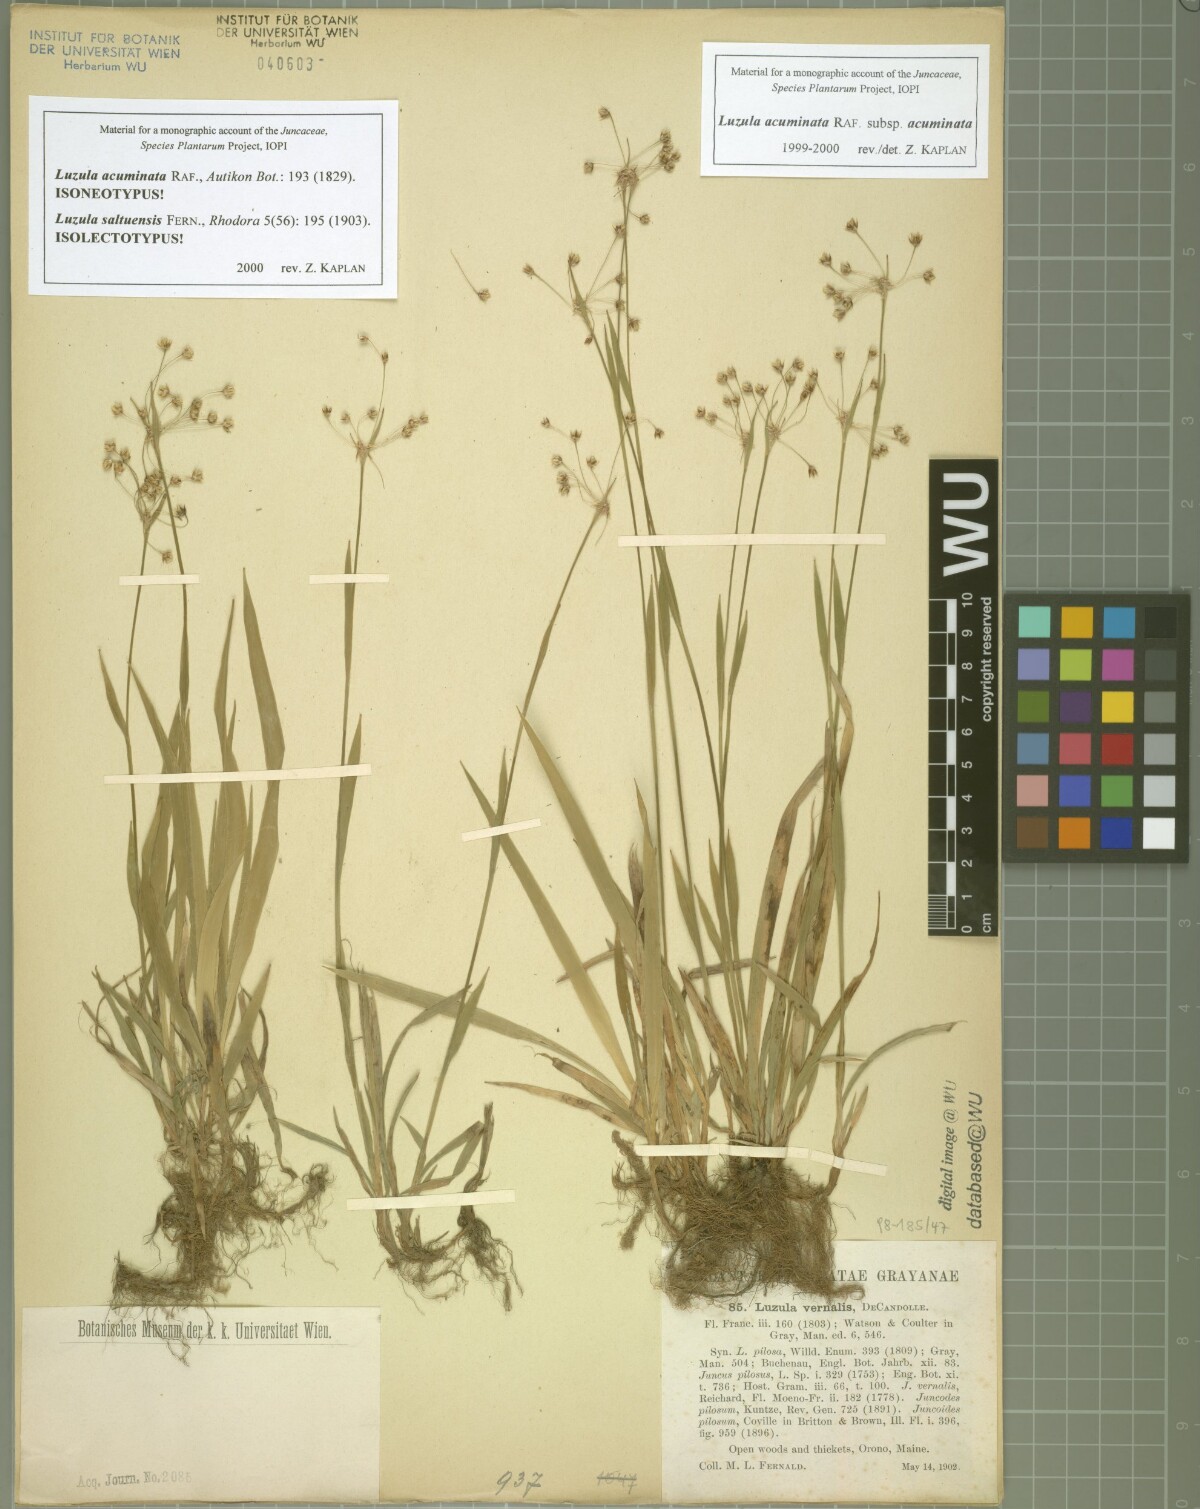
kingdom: Plantae
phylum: Tracheophyta
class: Liliopsida
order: Poales
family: Juncaceae
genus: Luzula
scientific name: Luzula acuminata
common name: Hairy woodrush
